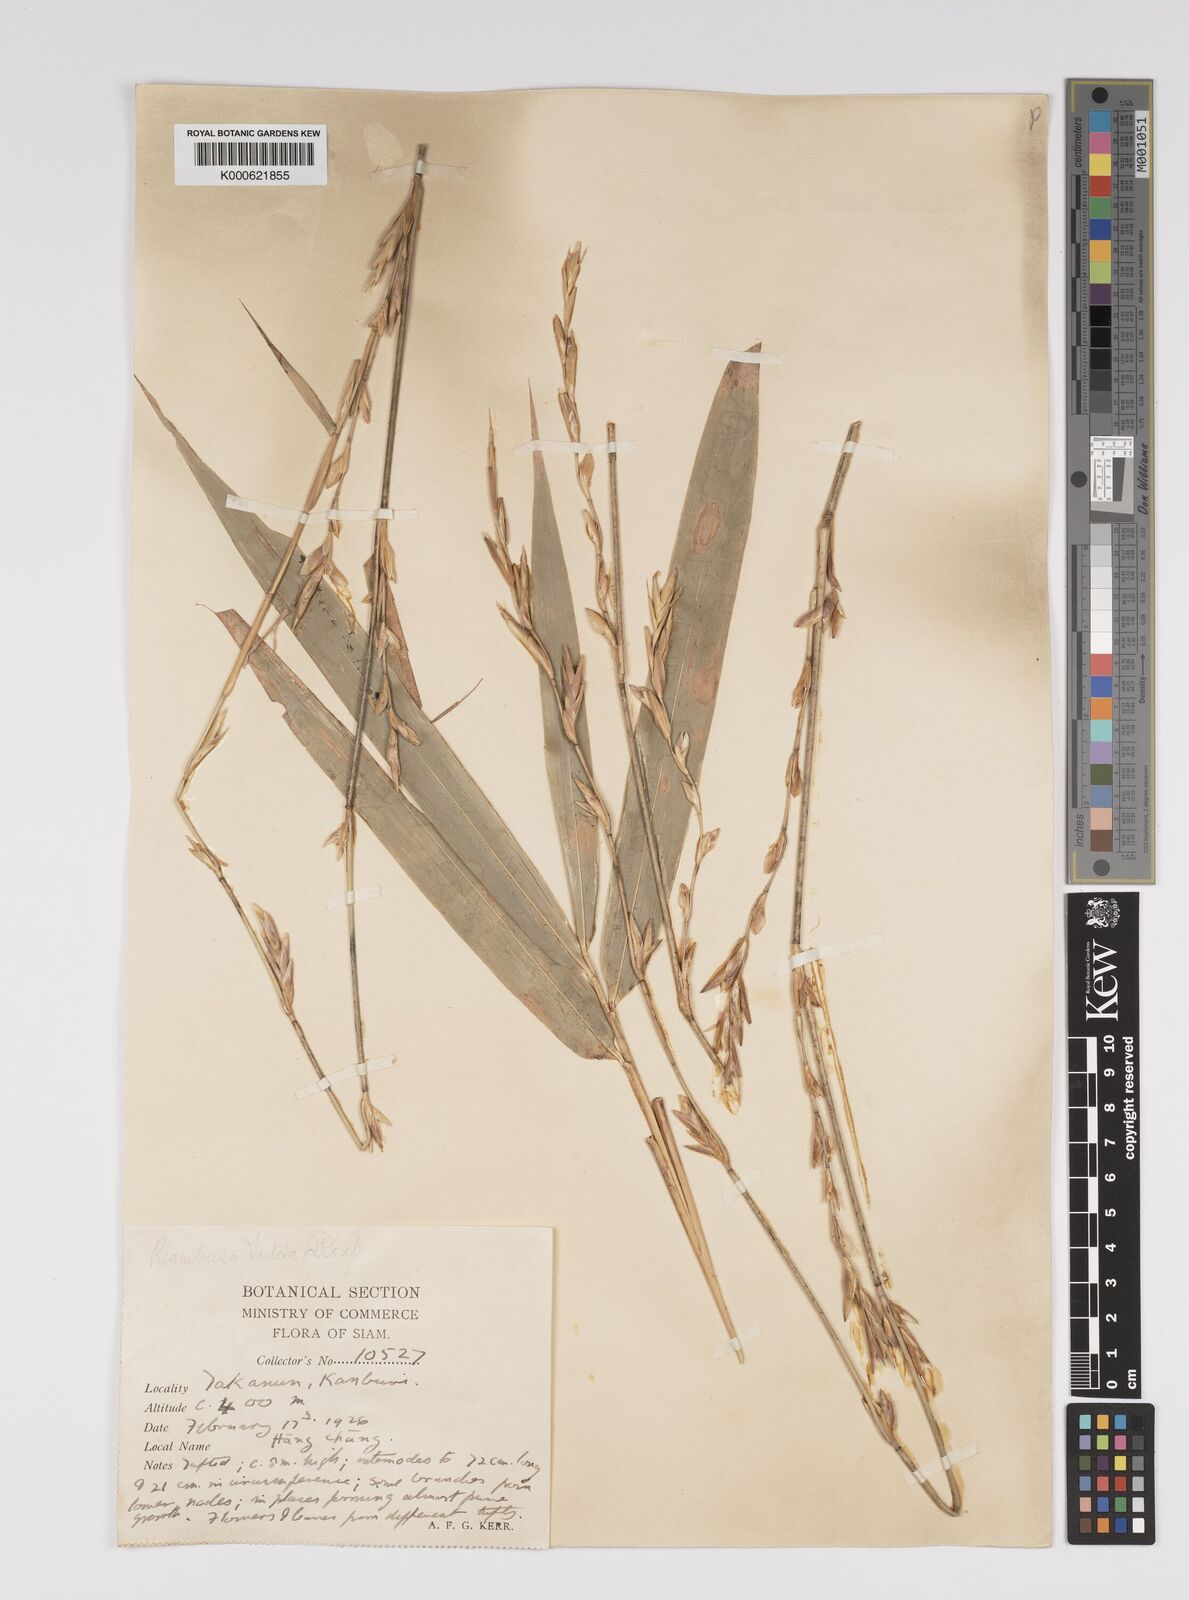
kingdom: Plantae
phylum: Tracheophyta
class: Liliopsida
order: Poales
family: Poaceae
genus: Bambusa
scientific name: Bambusa tulda
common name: Bengal bamboo
